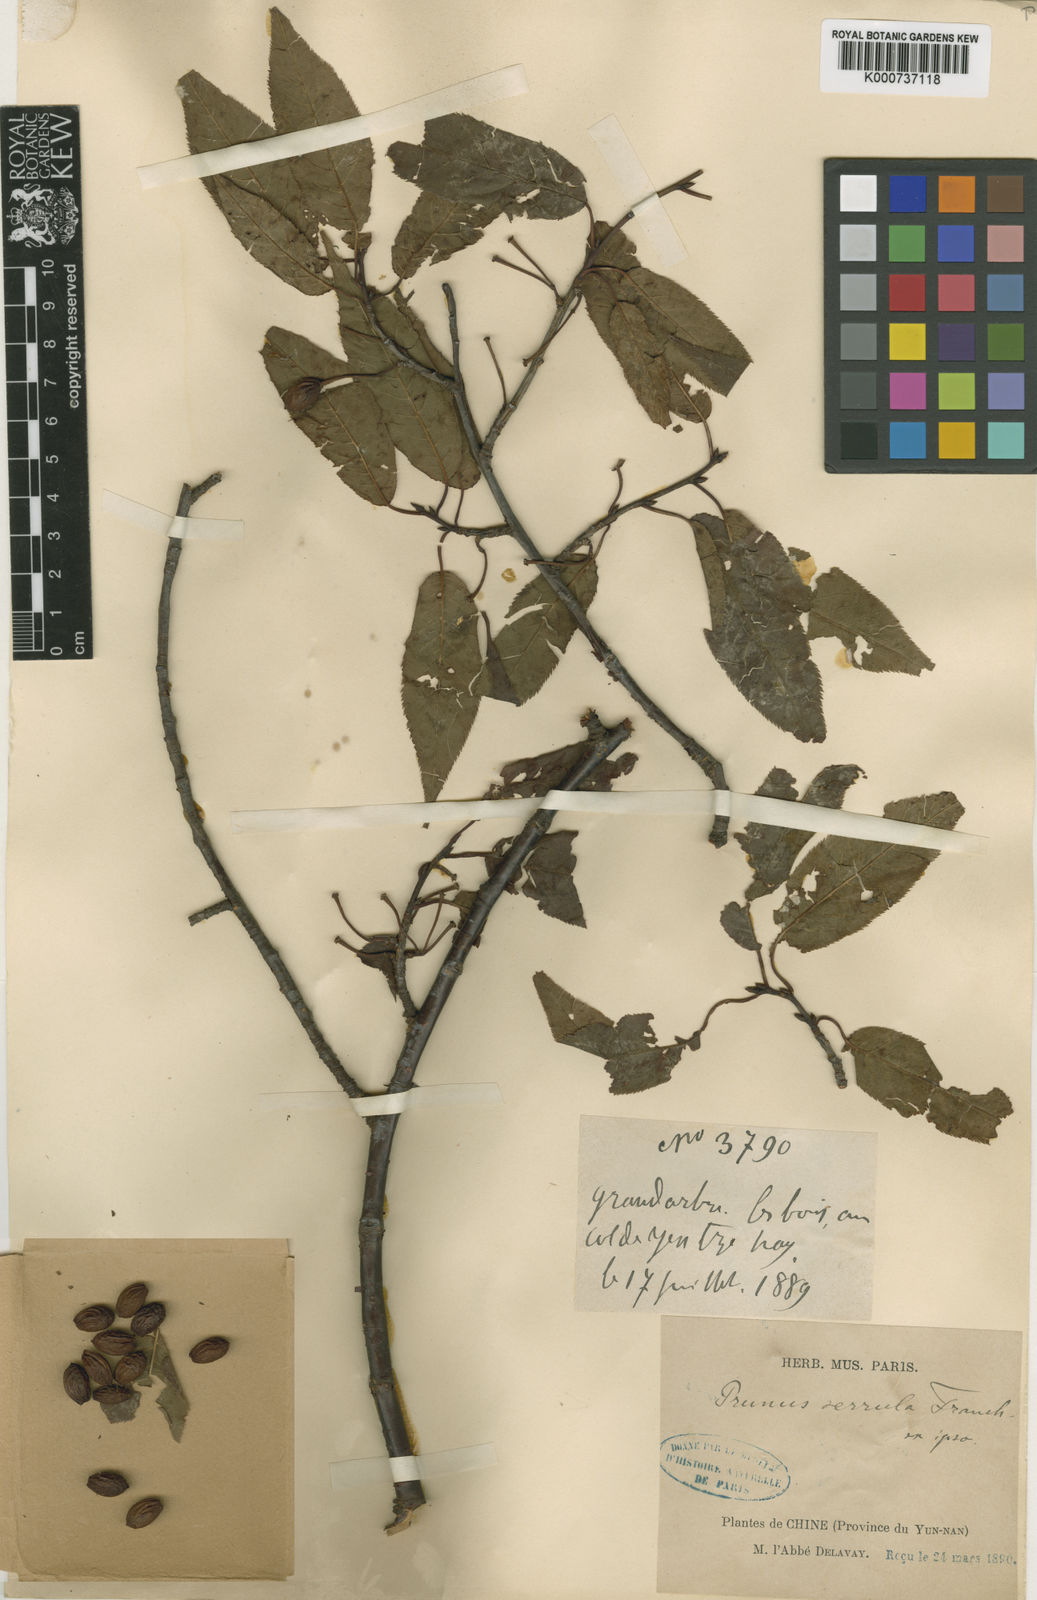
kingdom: Plantae
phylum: Tracheophyta
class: Magnoliopsida
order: Rosales
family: Rosaceae
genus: Prunus
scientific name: Prunus serrula
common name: Birchbark cherry
